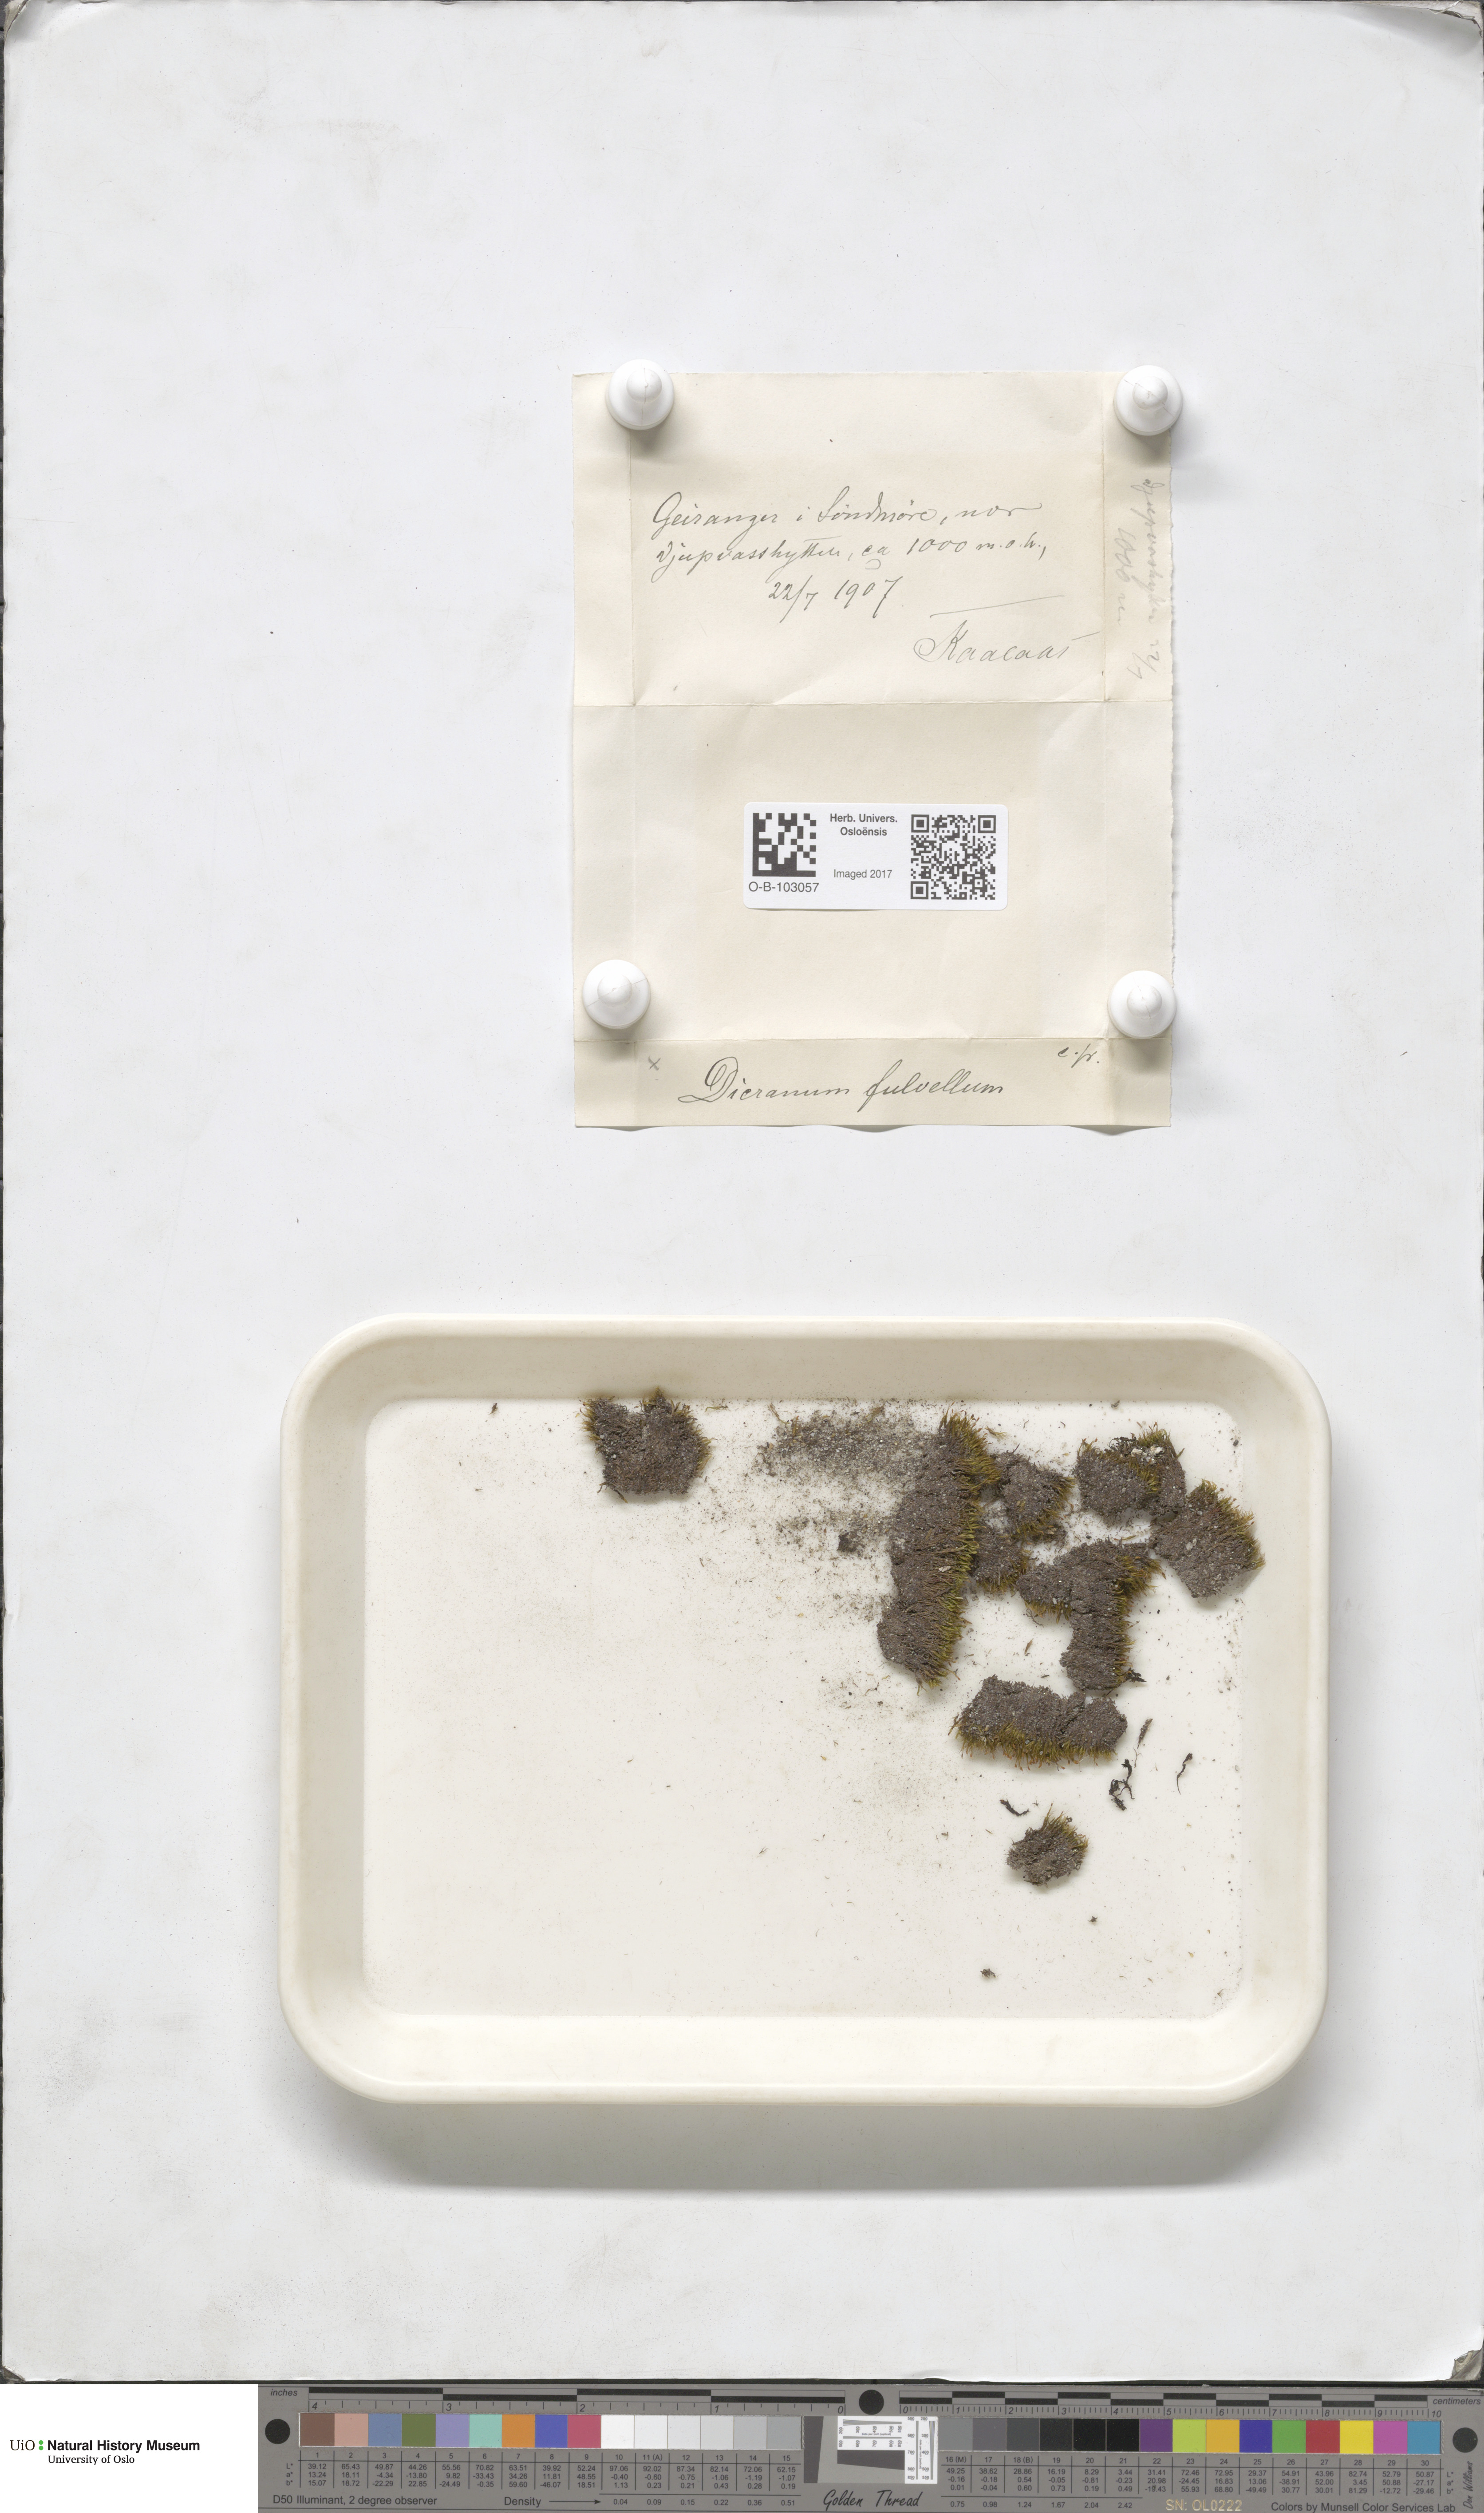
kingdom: Plantae
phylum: Bryophyta
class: Bryopsida
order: Dicranales
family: Rhabdoweisiaceae
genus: Arctoa
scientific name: Arctoa fulvella
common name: Tawny fork moss
